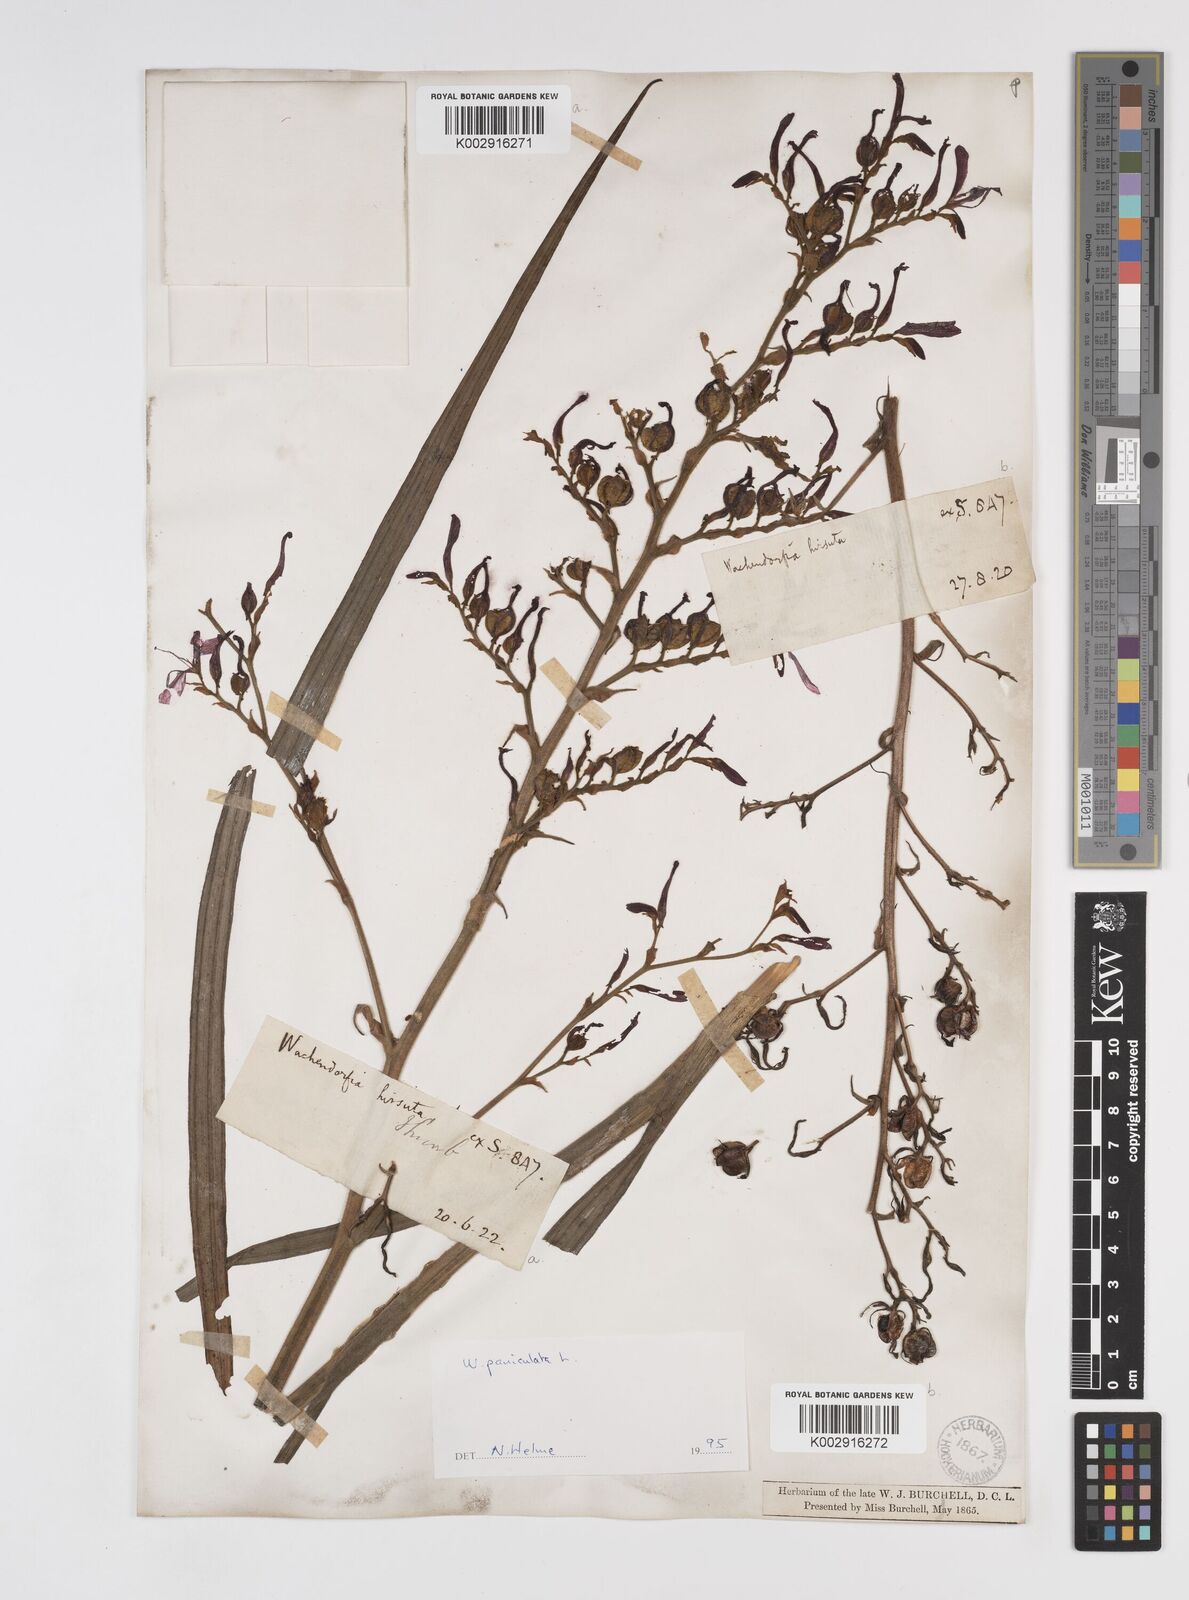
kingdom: Plantae
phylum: Tracheophyta
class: Liliopsida
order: Commelinales
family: Haemodoraceae
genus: Wachendorfia
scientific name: Wachendorfia paniculata
